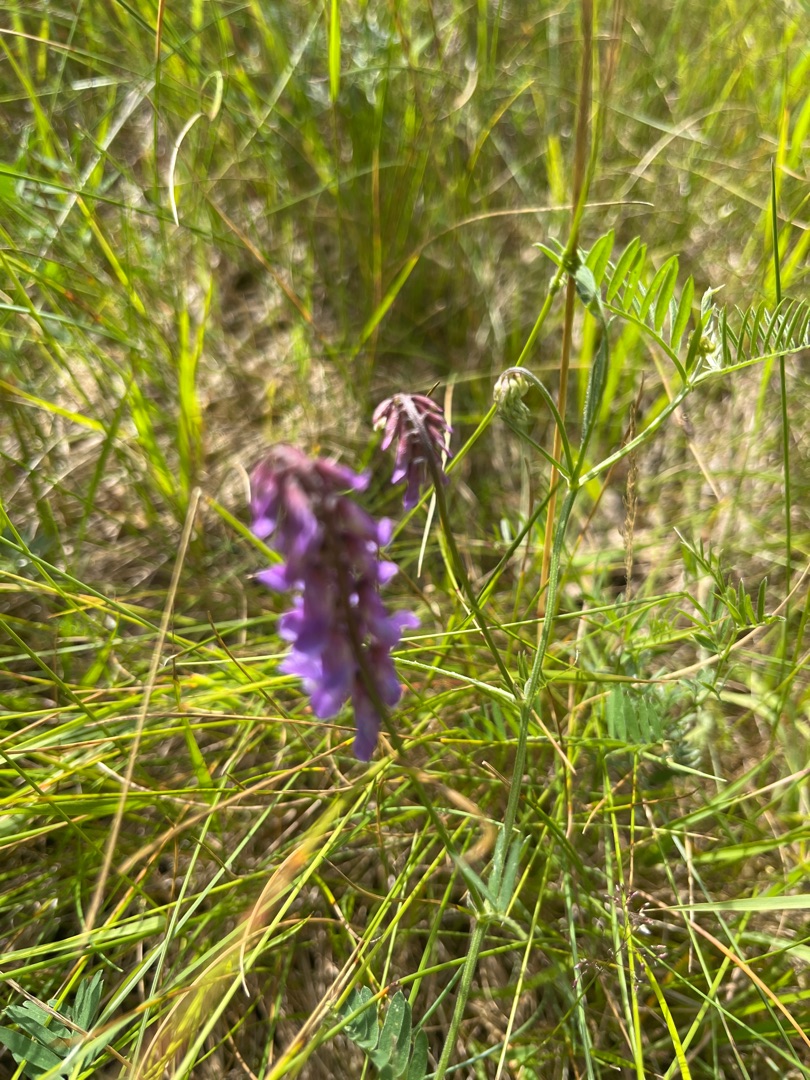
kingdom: Plantae
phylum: Tracheophyta
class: Magnoliopsida
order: Fabales
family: Fabaceae
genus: Vicia
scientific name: Vicia cracca
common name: Muse-vikke
